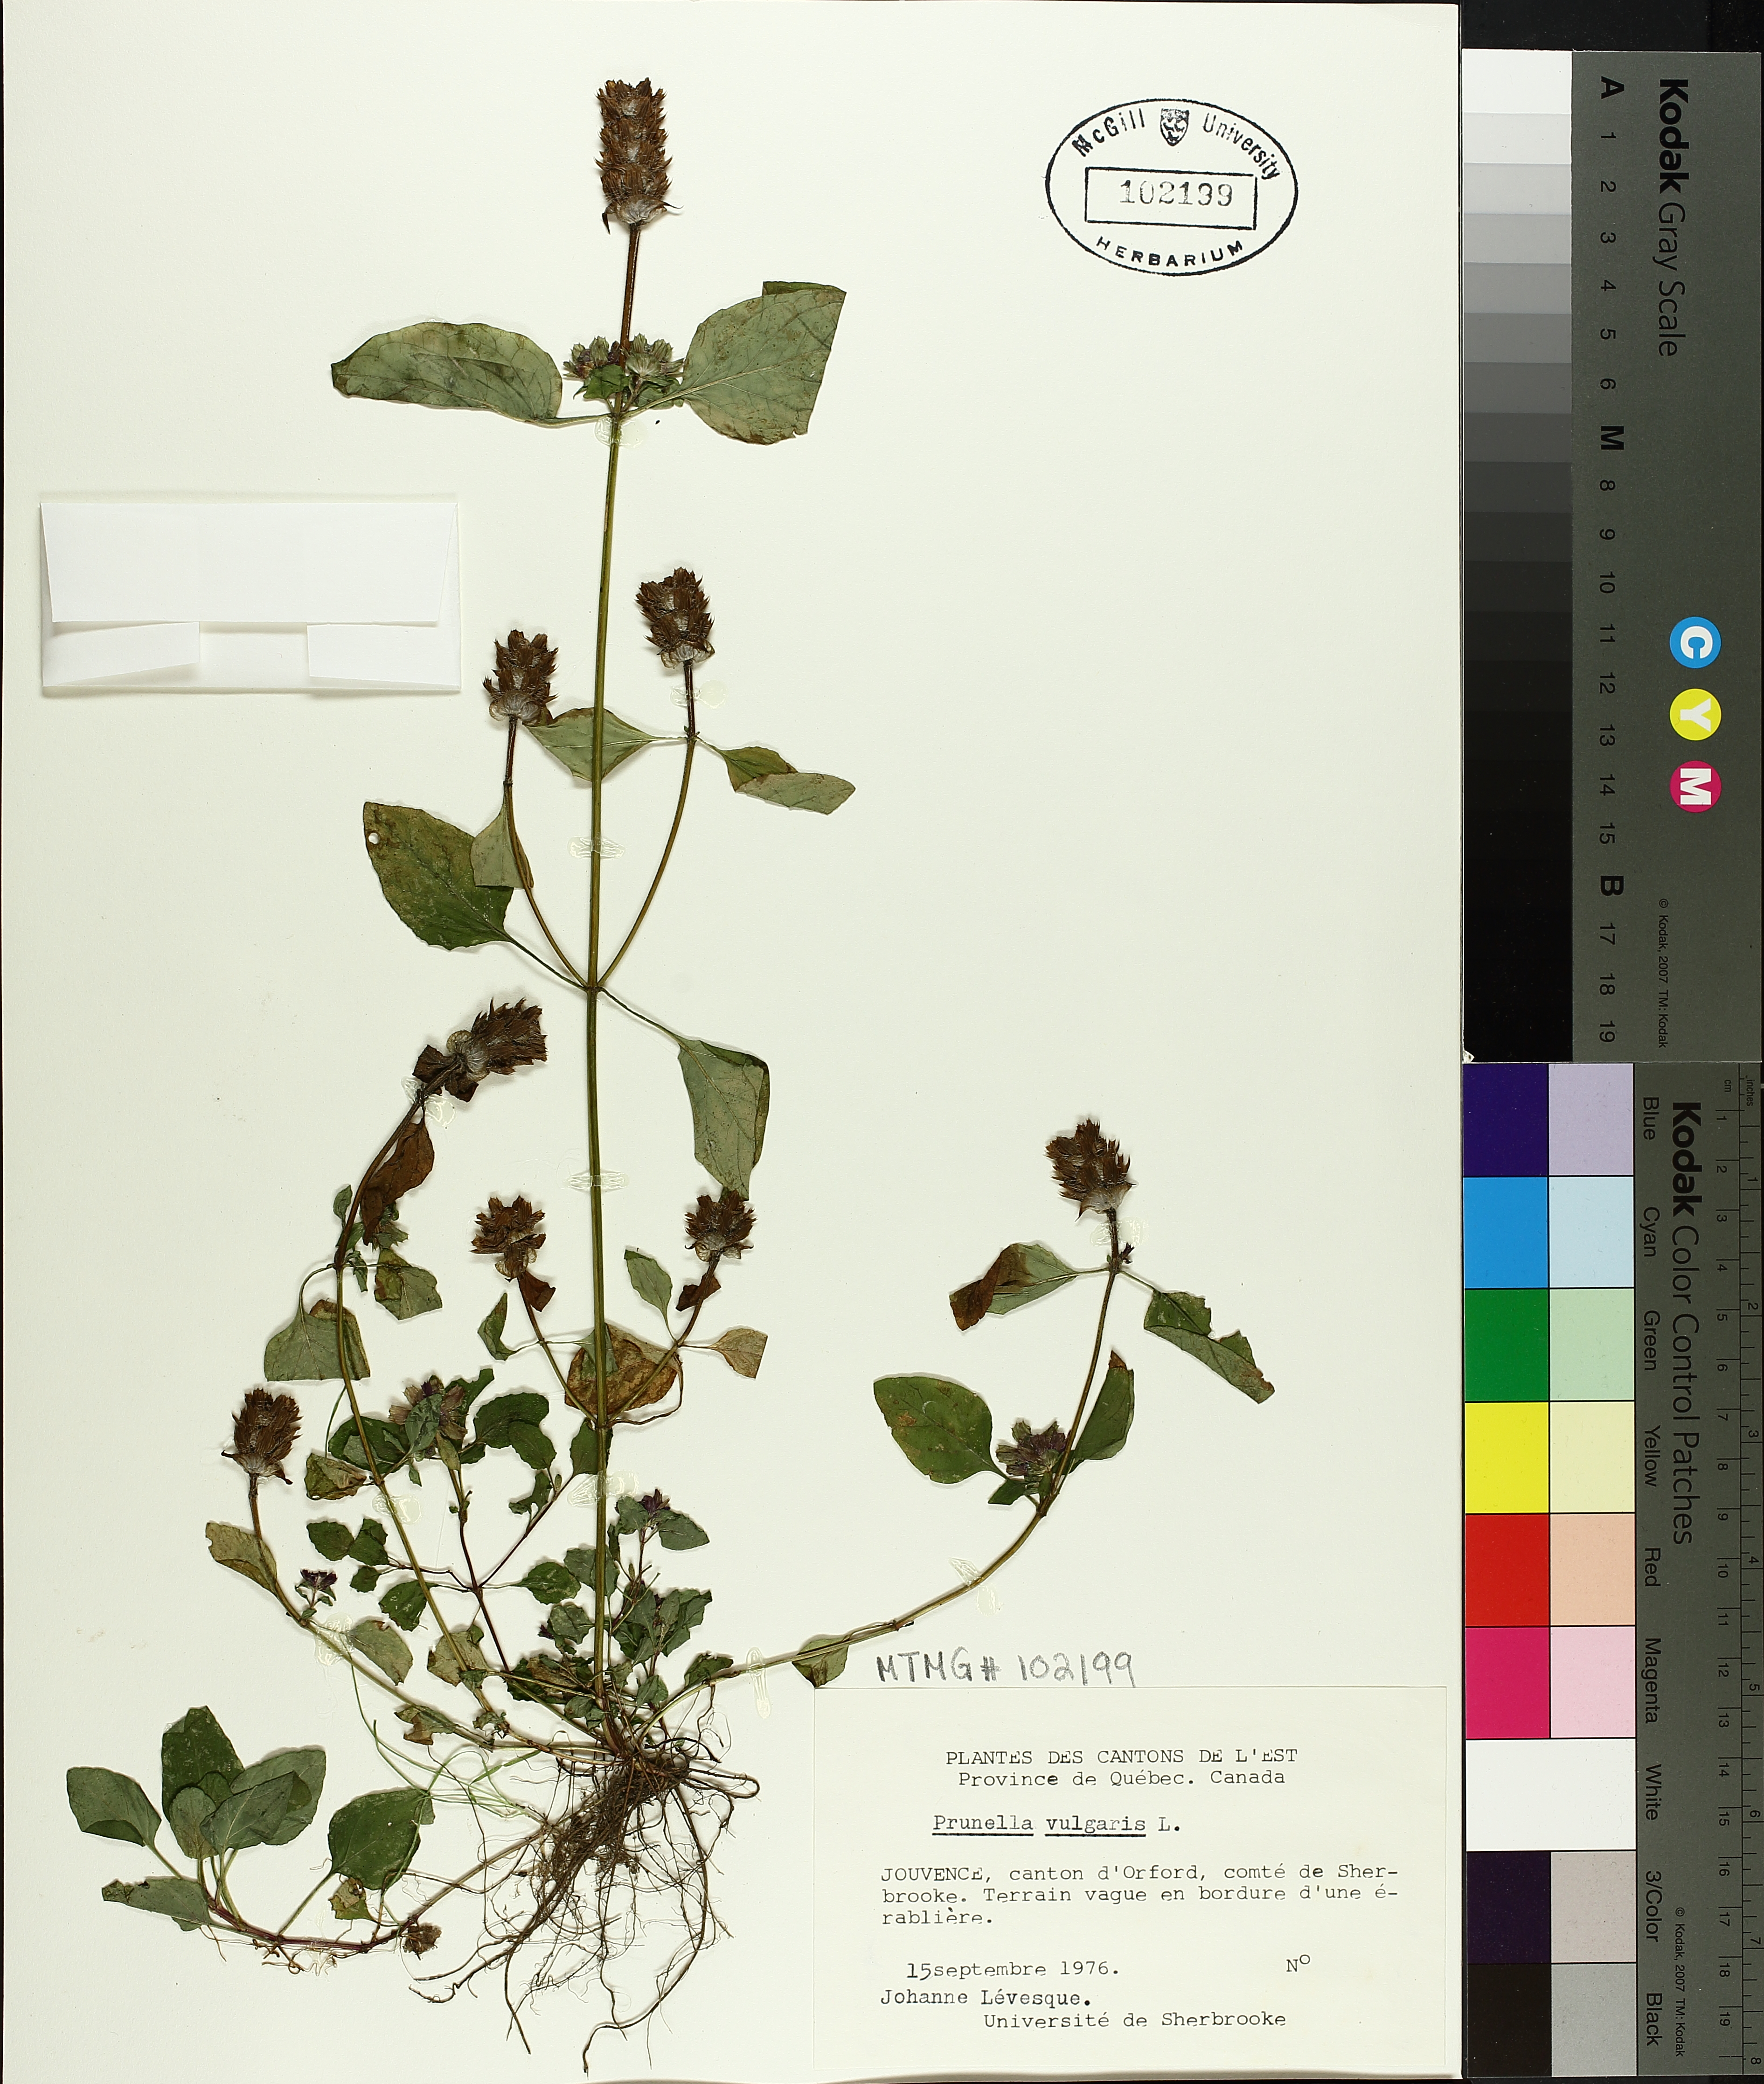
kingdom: Plantae
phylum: Tracheophyta
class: Magnoliopsida
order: Lamiales
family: Lamiaceae
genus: Prunella
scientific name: Prunella vulgaris
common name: Heal-all
